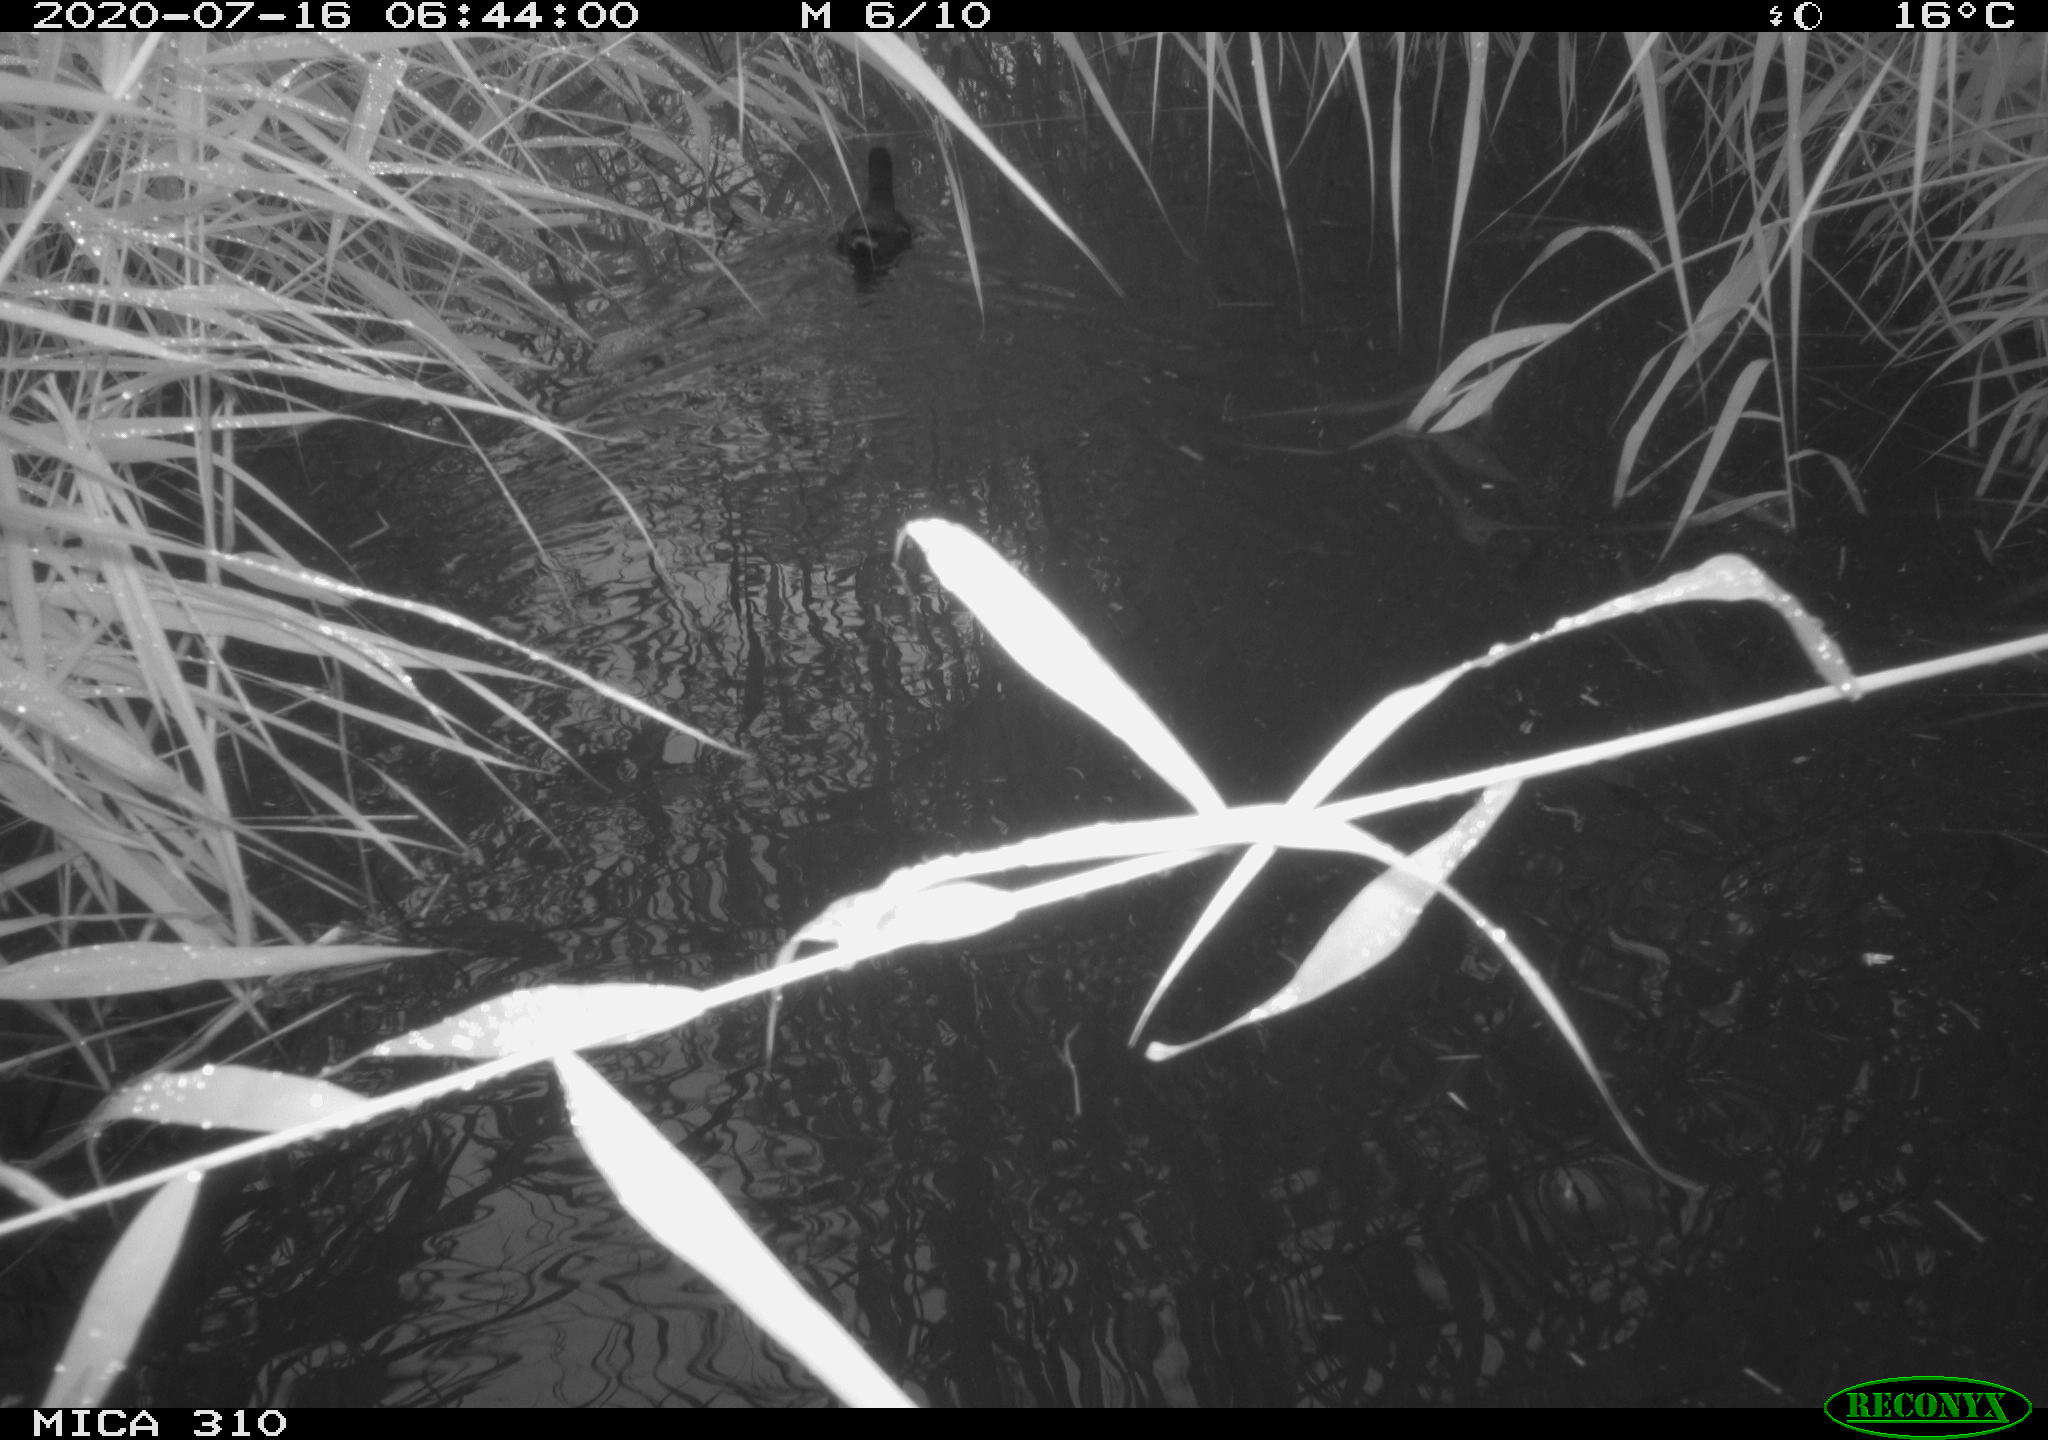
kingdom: Animalia
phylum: Chordata
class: Aves
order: Anseriformes
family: Anatidae
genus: Anas
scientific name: Anas platyrhynchos
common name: Mallard
